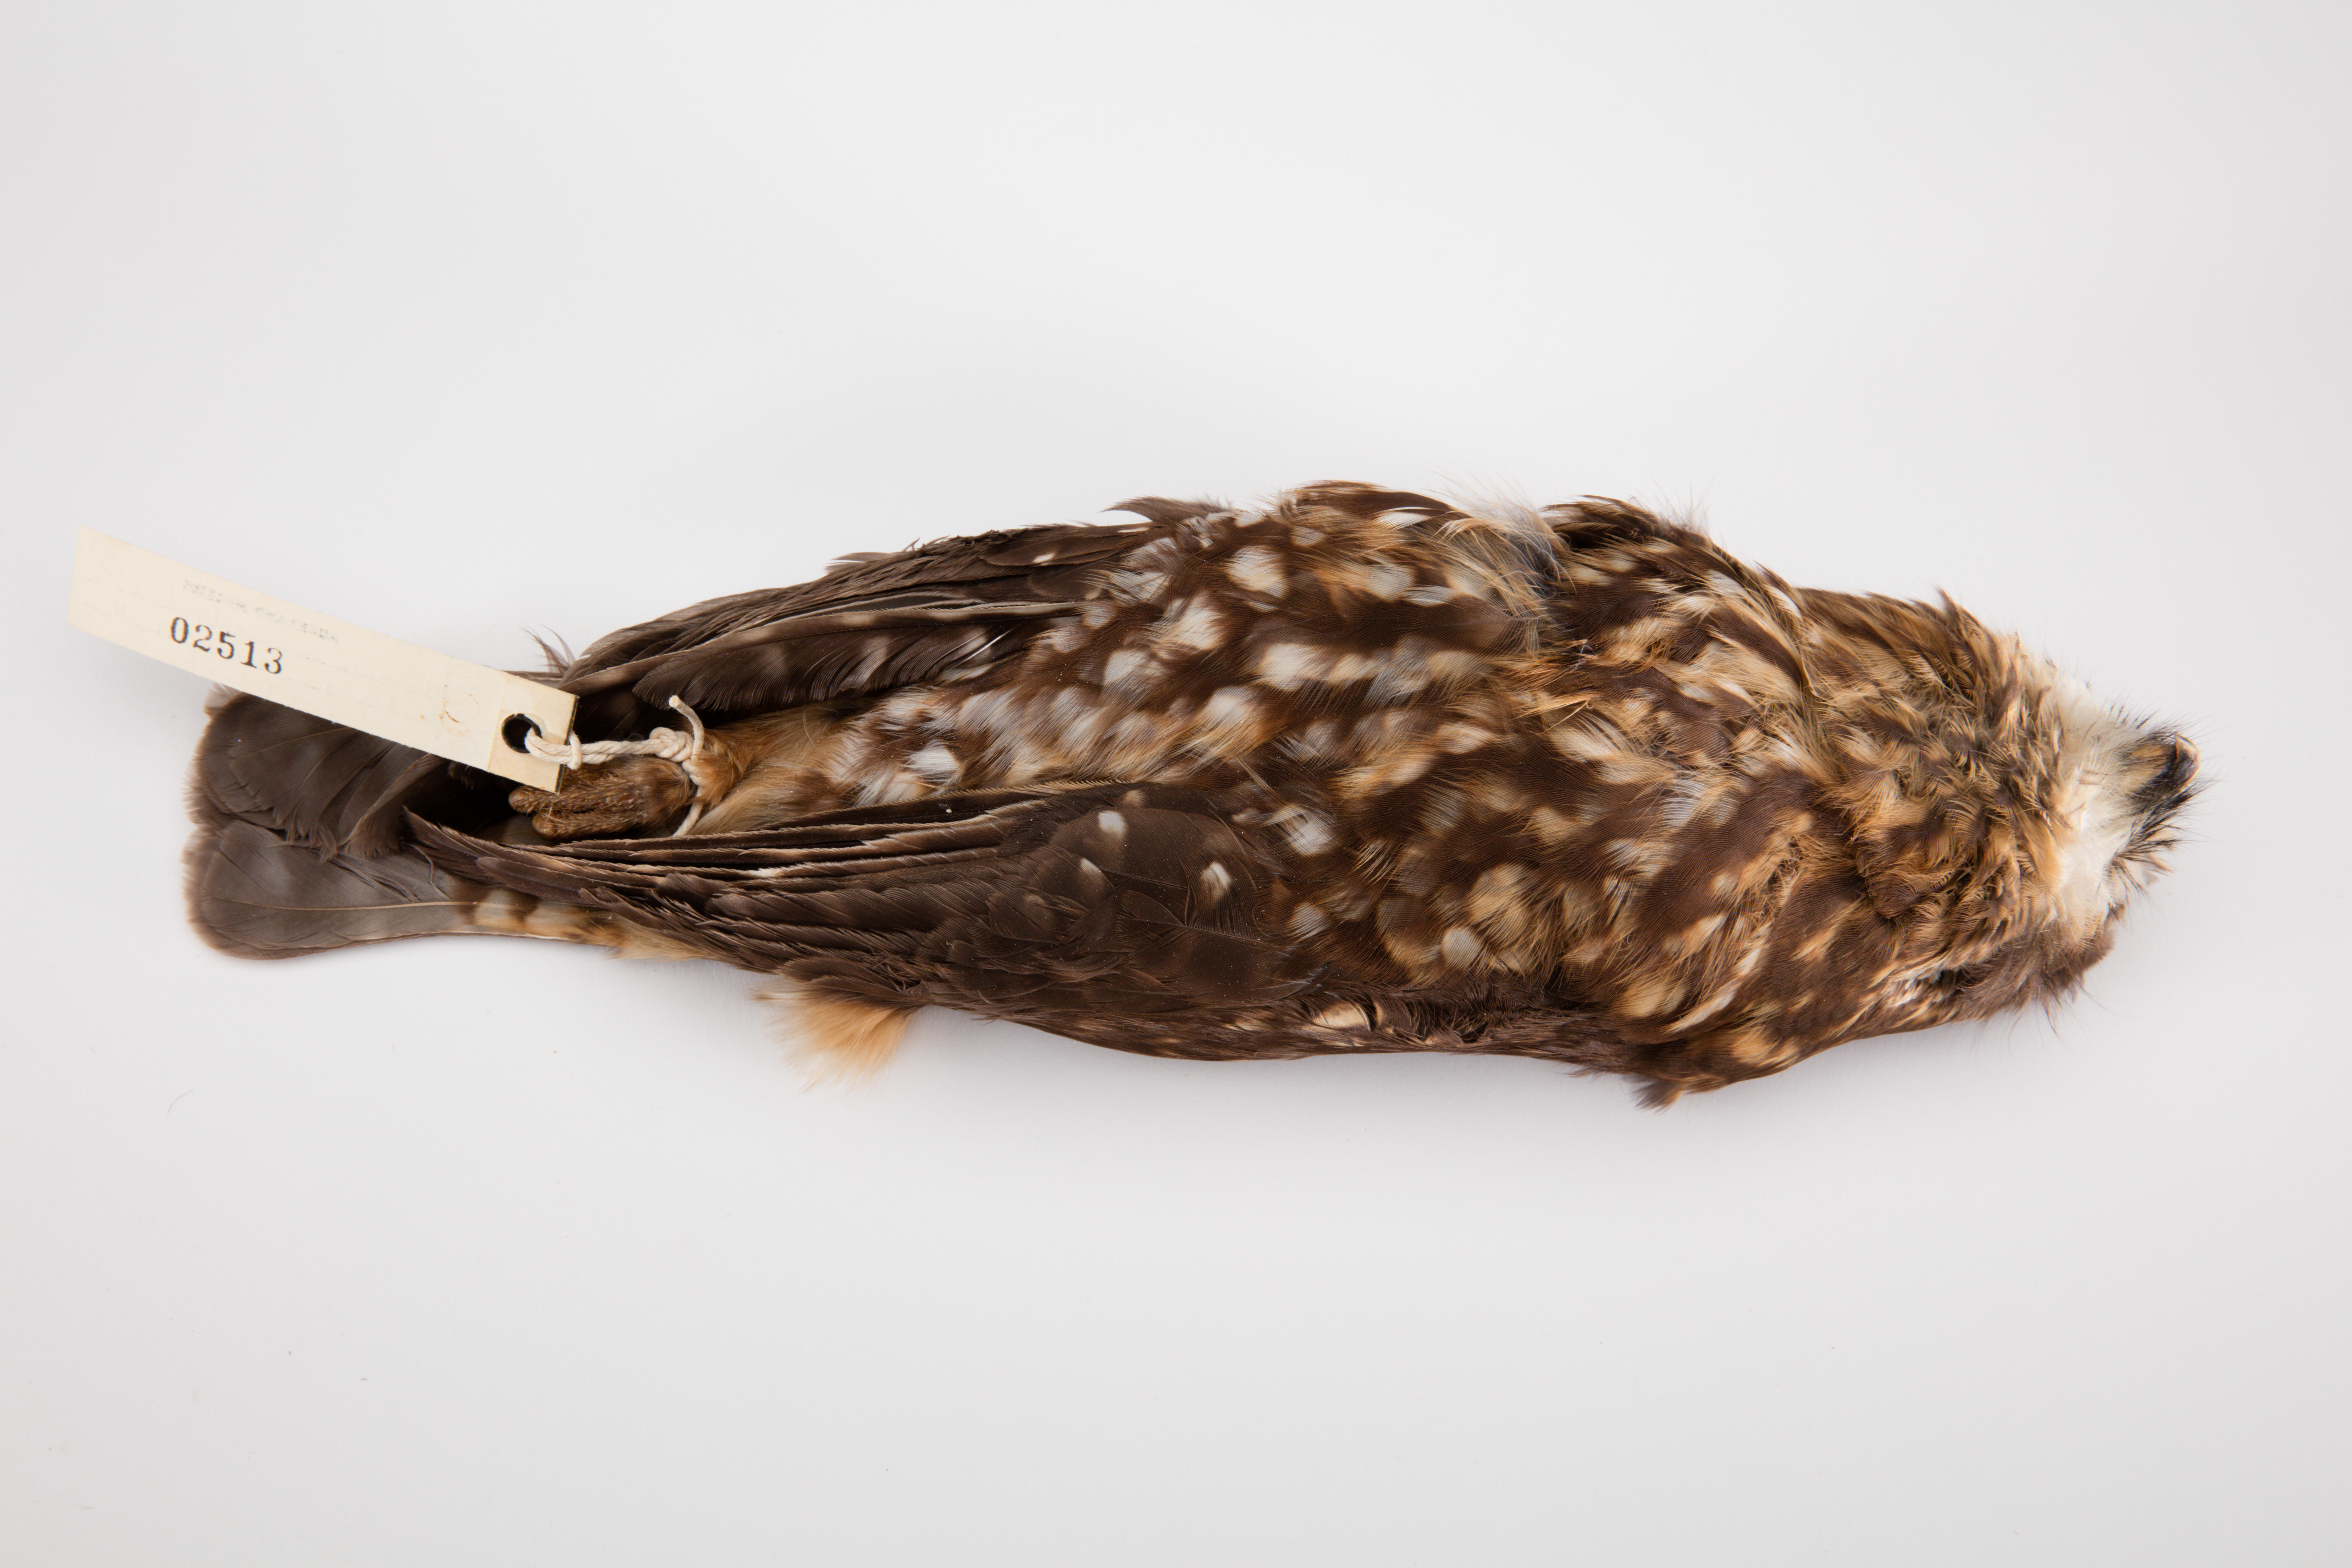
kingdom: Animalia
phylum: Chordata
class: Aves
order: Strigiformes
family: Strigidae
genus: Ninox
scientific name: Ninox novaeseelandiae
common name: Morepork
